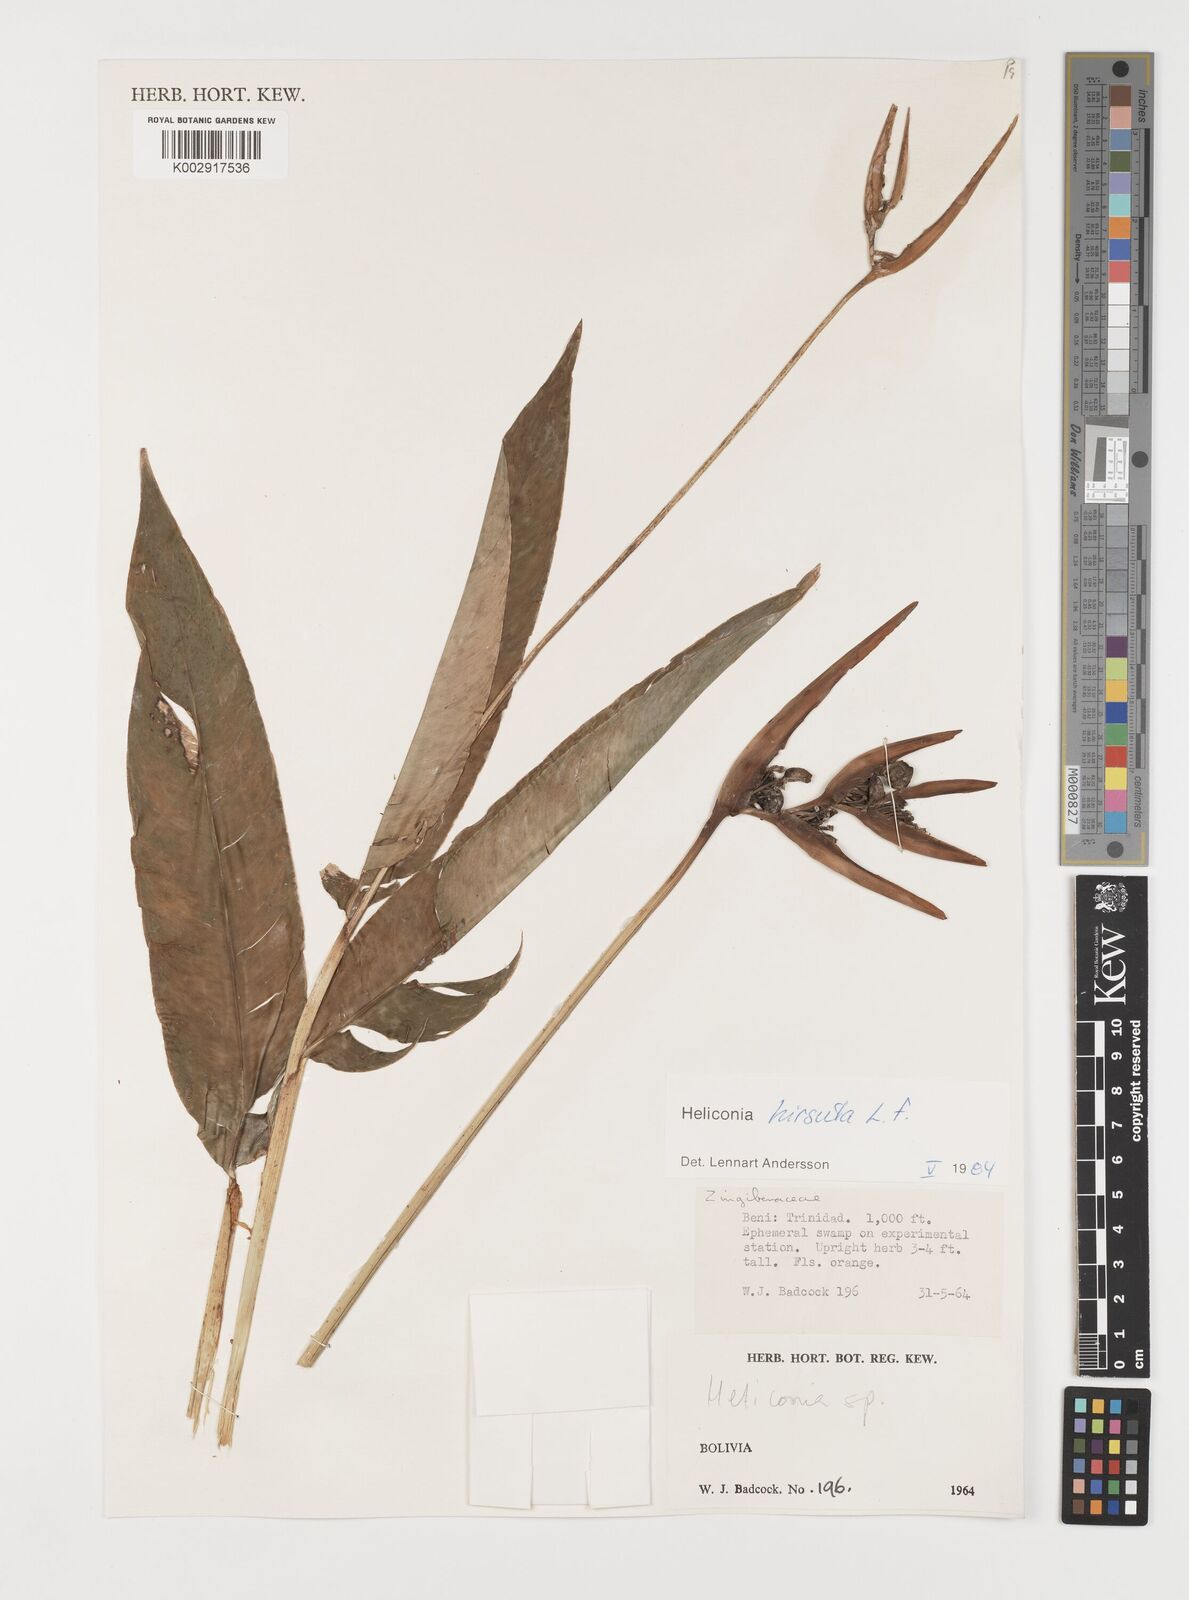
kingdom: Plantae
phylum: Tracheophyta
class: Liliopsida
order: Zingiberales
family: Heliconiaceae
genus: Heliconia
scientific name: Heliconia hirsuta
